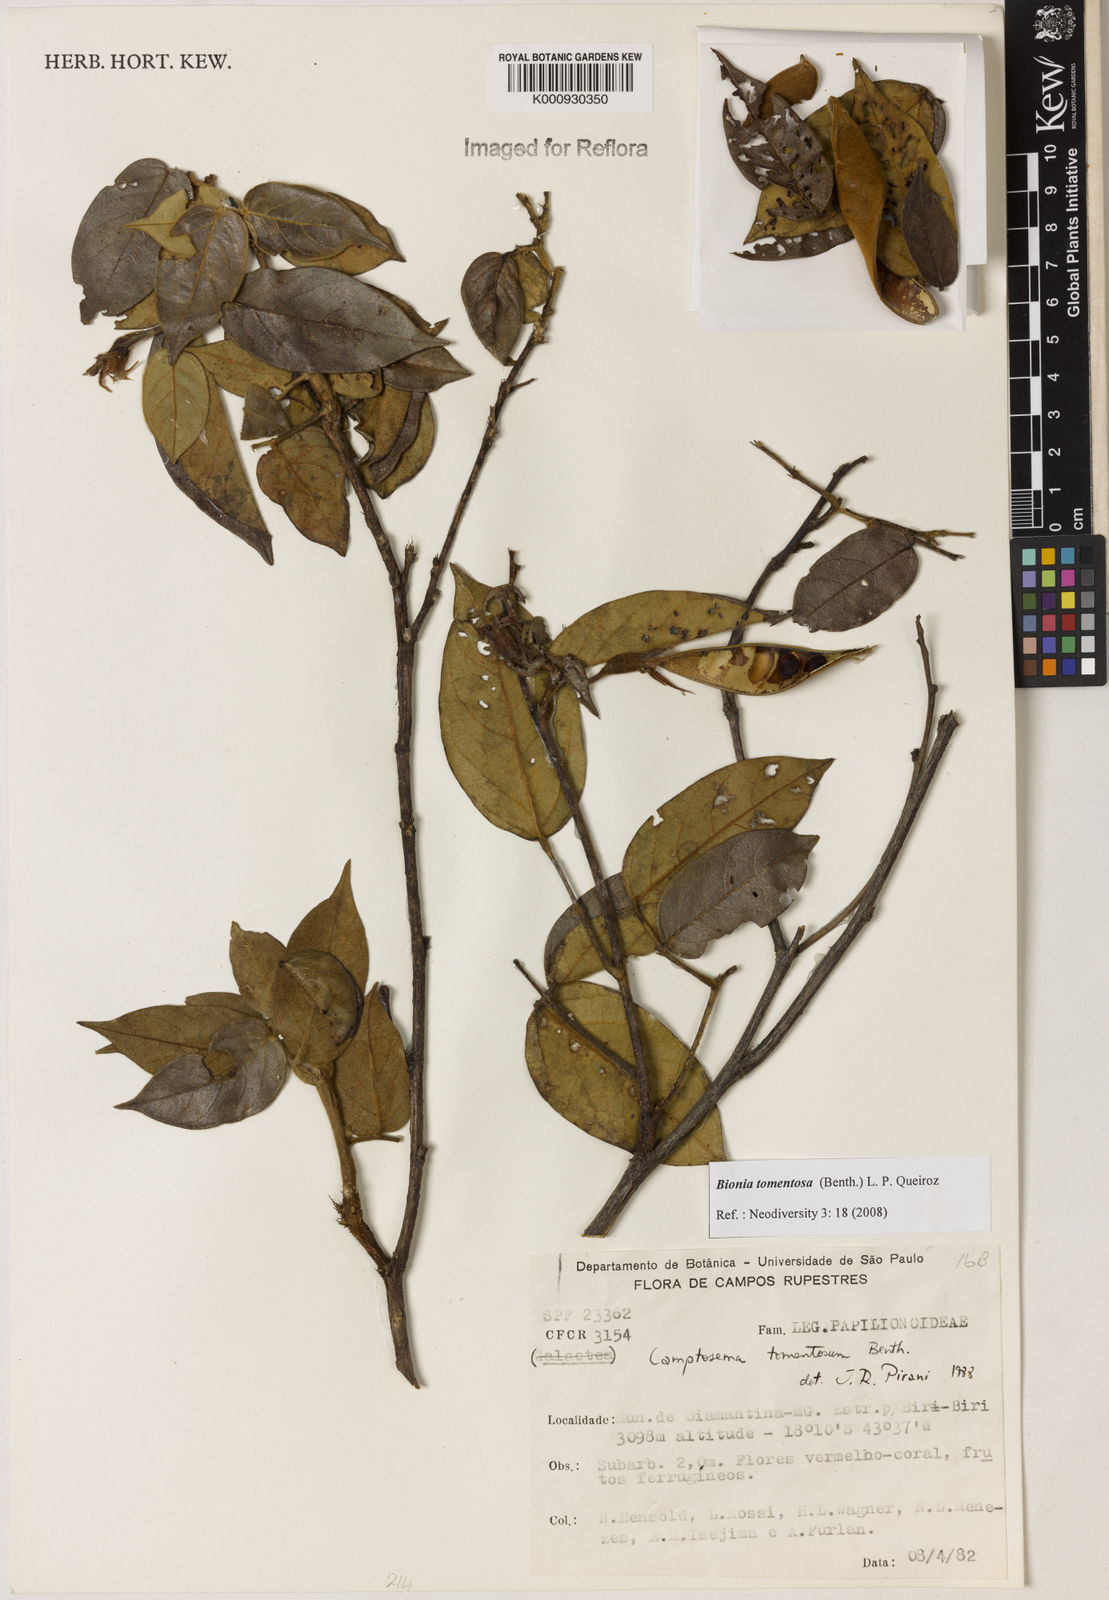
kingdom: Plantae
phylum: Tracheophyta
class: Magnoliopsida
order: Fabales
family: Fabaceae
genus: Camptosema
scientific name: Camptosema tomentosum
